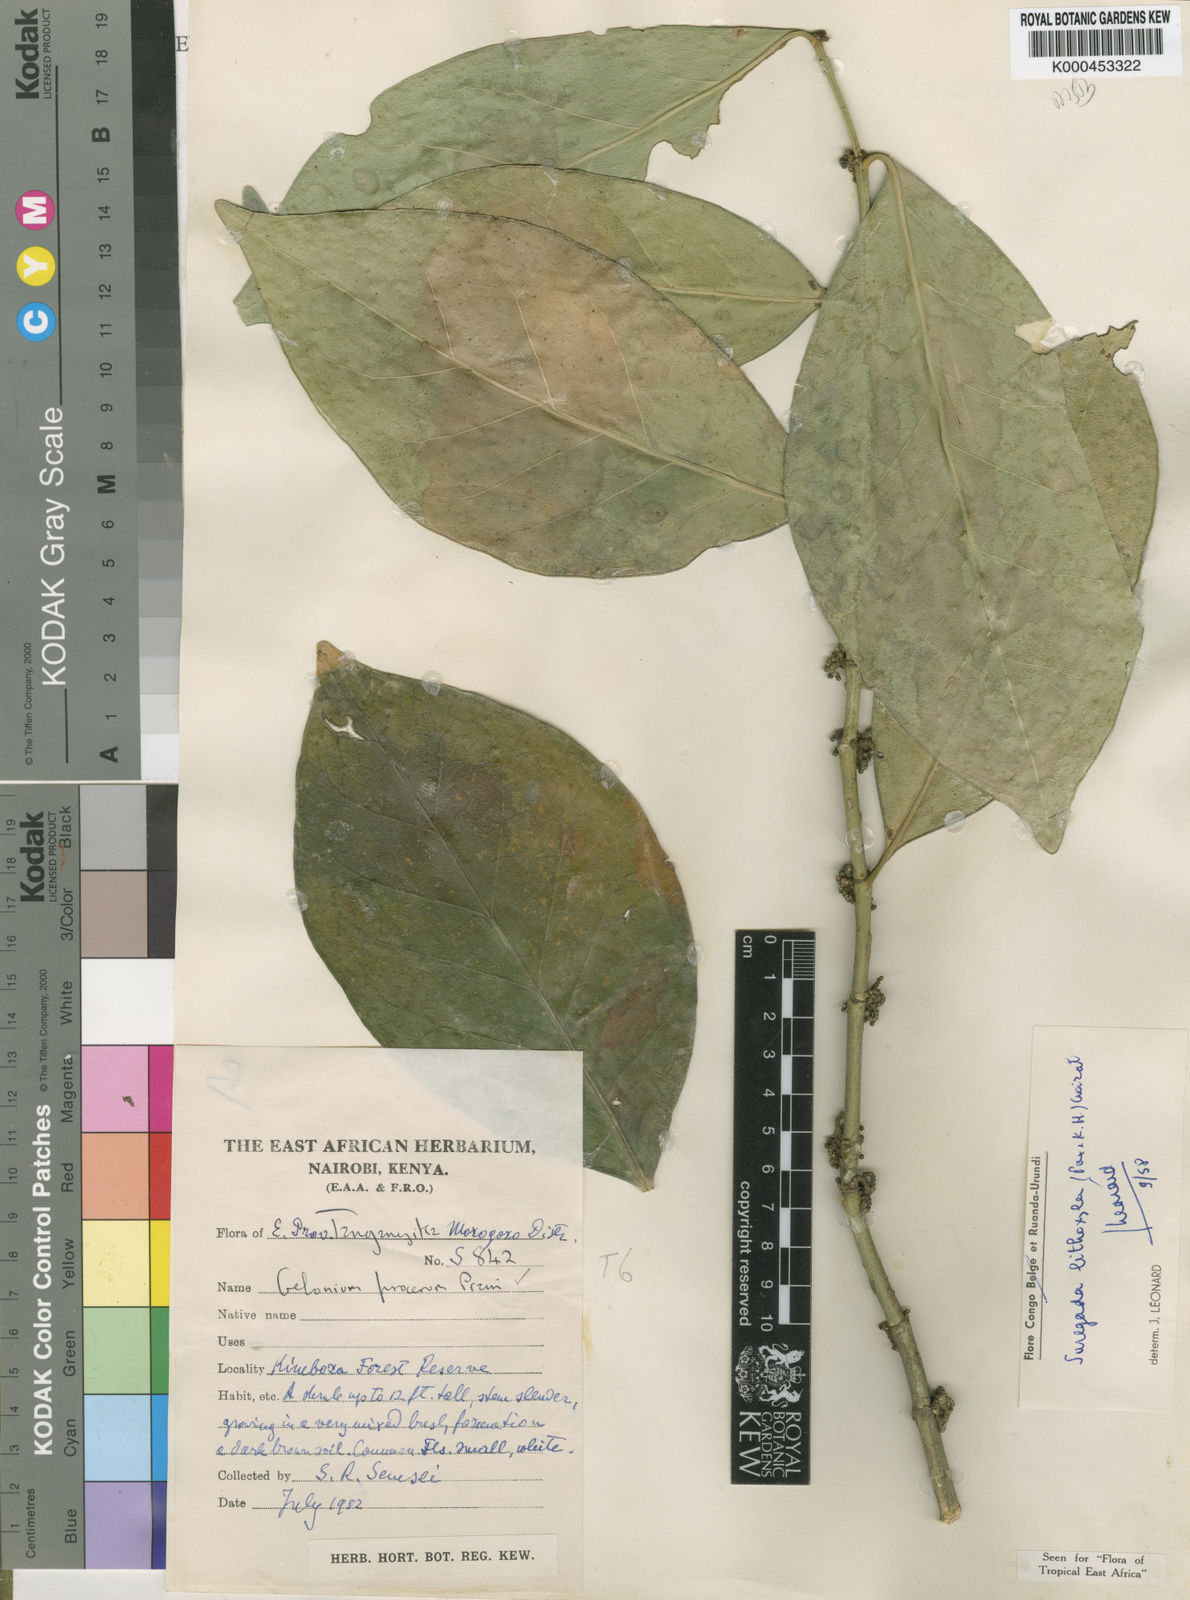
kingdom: Plantae
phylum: Tracheophyta
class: Magnoliopsida
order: Malpighiales
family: Euphorbiaceae
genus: Suregada
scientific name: Suregada lithoxyla
